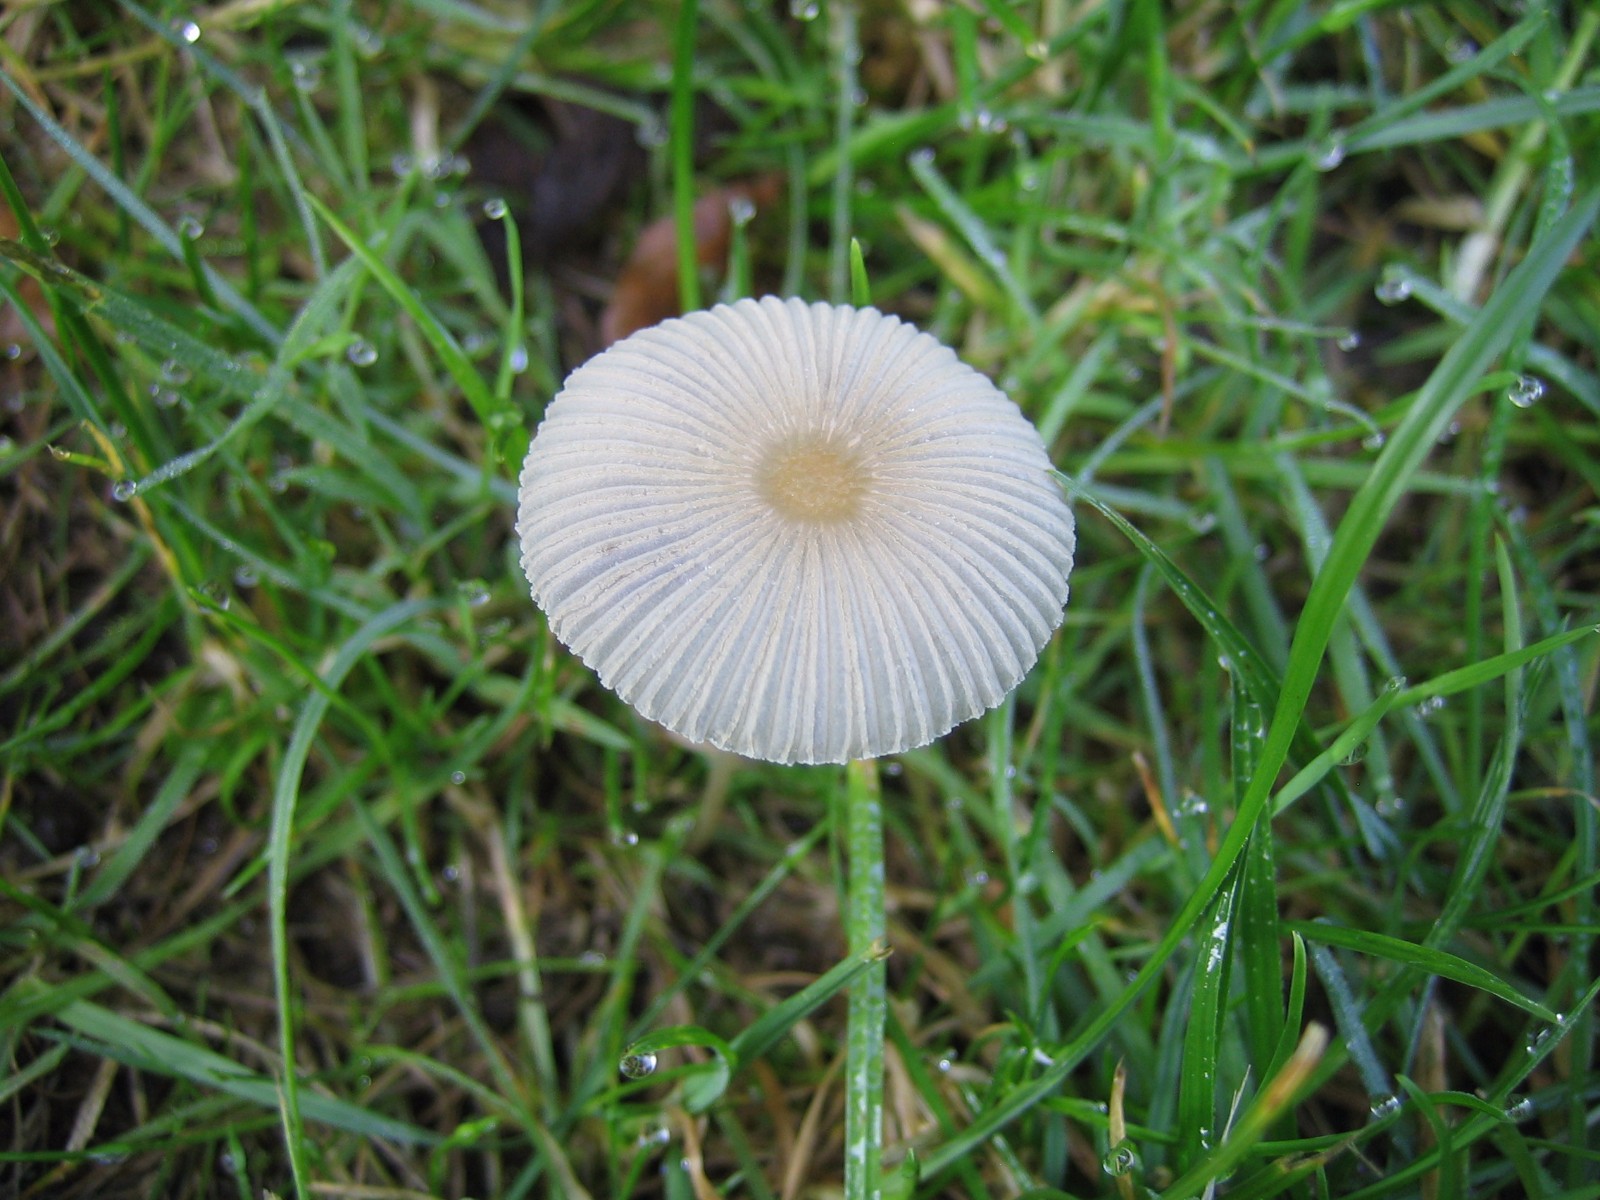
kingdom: Fungi
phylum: Basidiomycota
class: Agaricomycetes
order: Agaricales
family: Psathyrellaceae
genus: Parasola
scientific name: Parasola
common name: hjulhat
